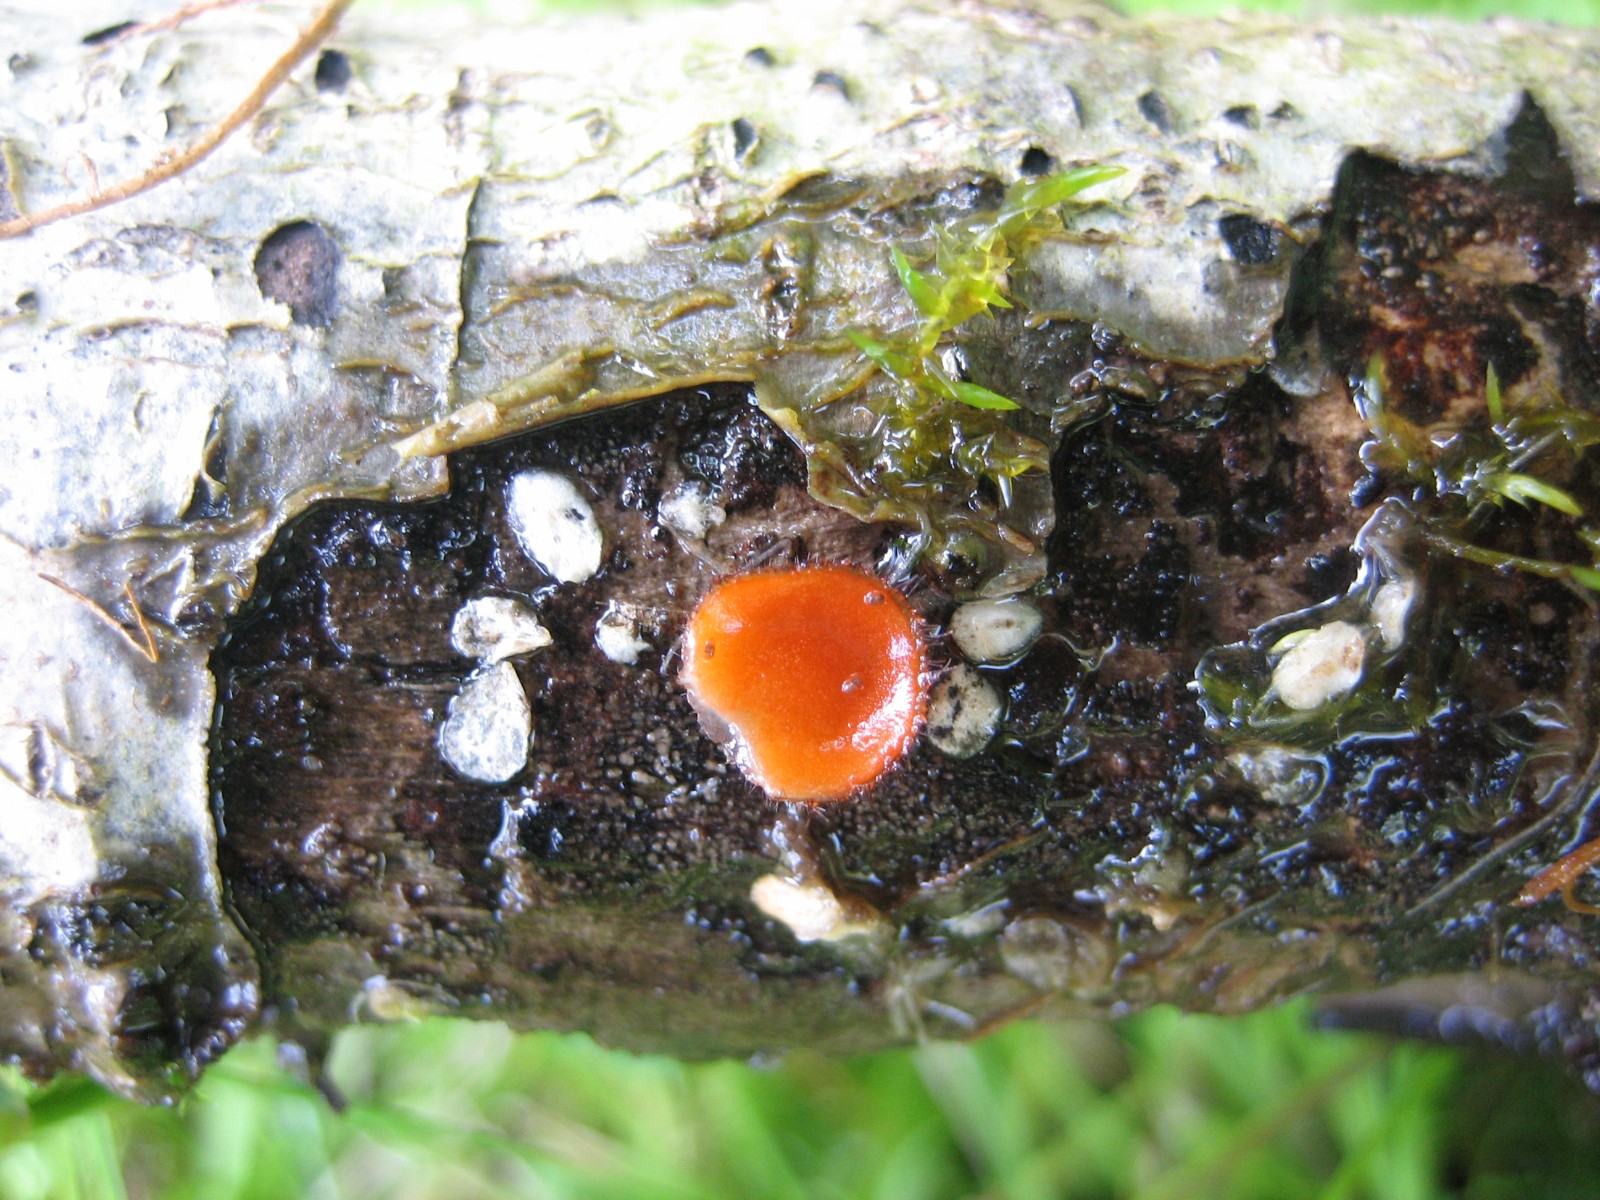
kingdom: Fungi
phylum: Ascomycota
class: Pezizomycetes
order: Pezizales
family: Pyronemataceae
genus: Scutellinia
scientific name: Scutellinia
